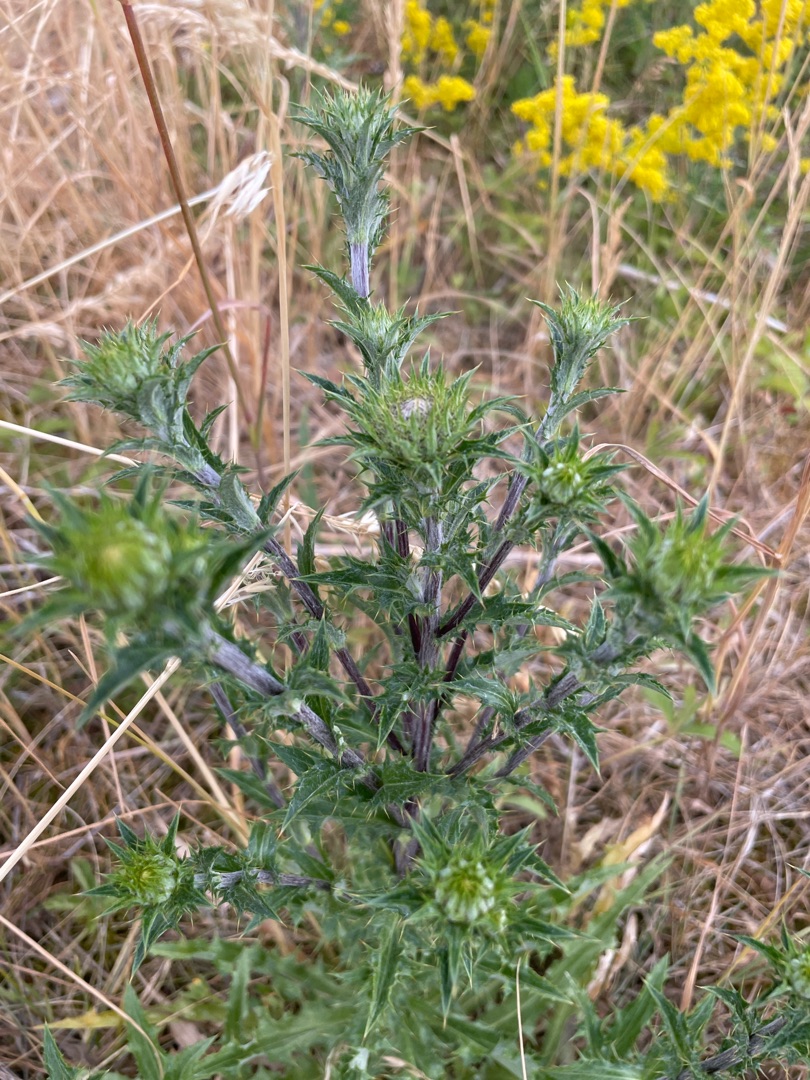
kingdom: Plantae
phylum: Tracheophyta
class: Magnoliopsida
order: Asterales
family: Asteraceae
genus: Carlina
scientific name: Carlina vulgaris
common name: Bakketidsel
